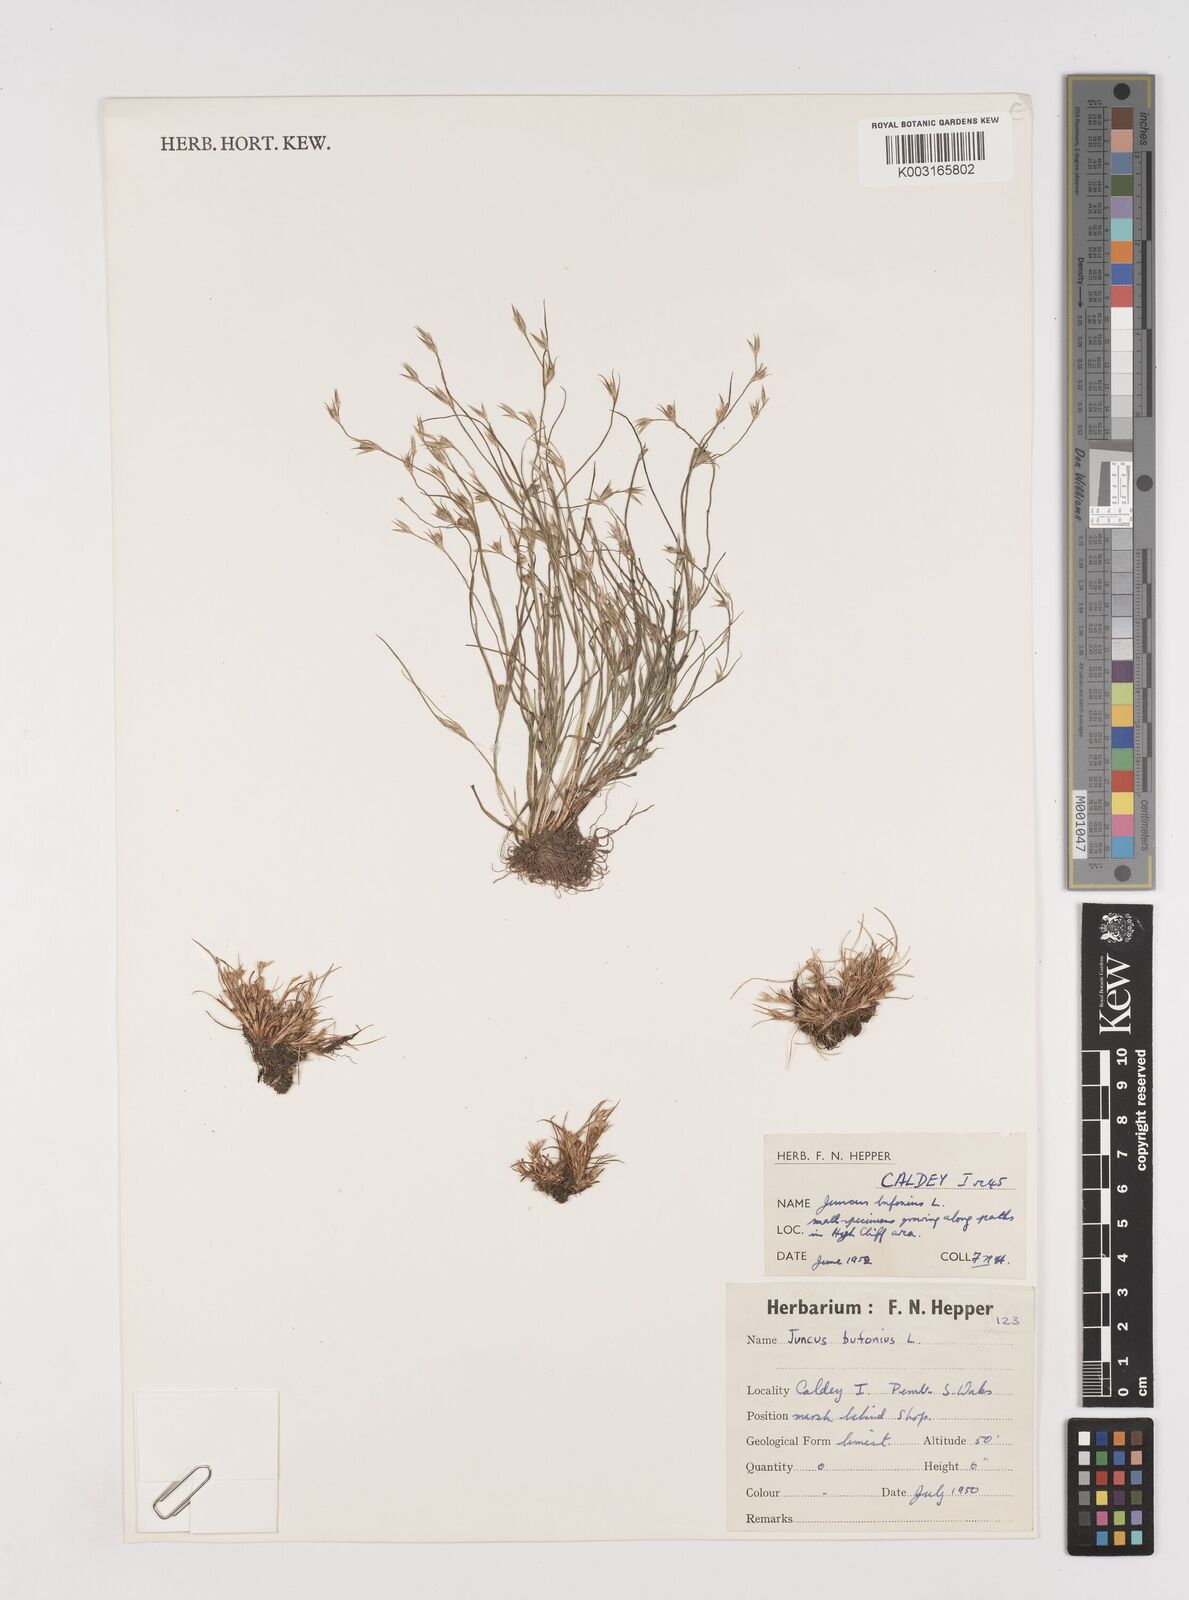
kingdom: Plantae
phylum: Tracheophyta
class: Liliopsida
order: Poales
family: Juncaceae
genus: Juncus
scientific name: Juncus bufonius
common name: Toad rush
